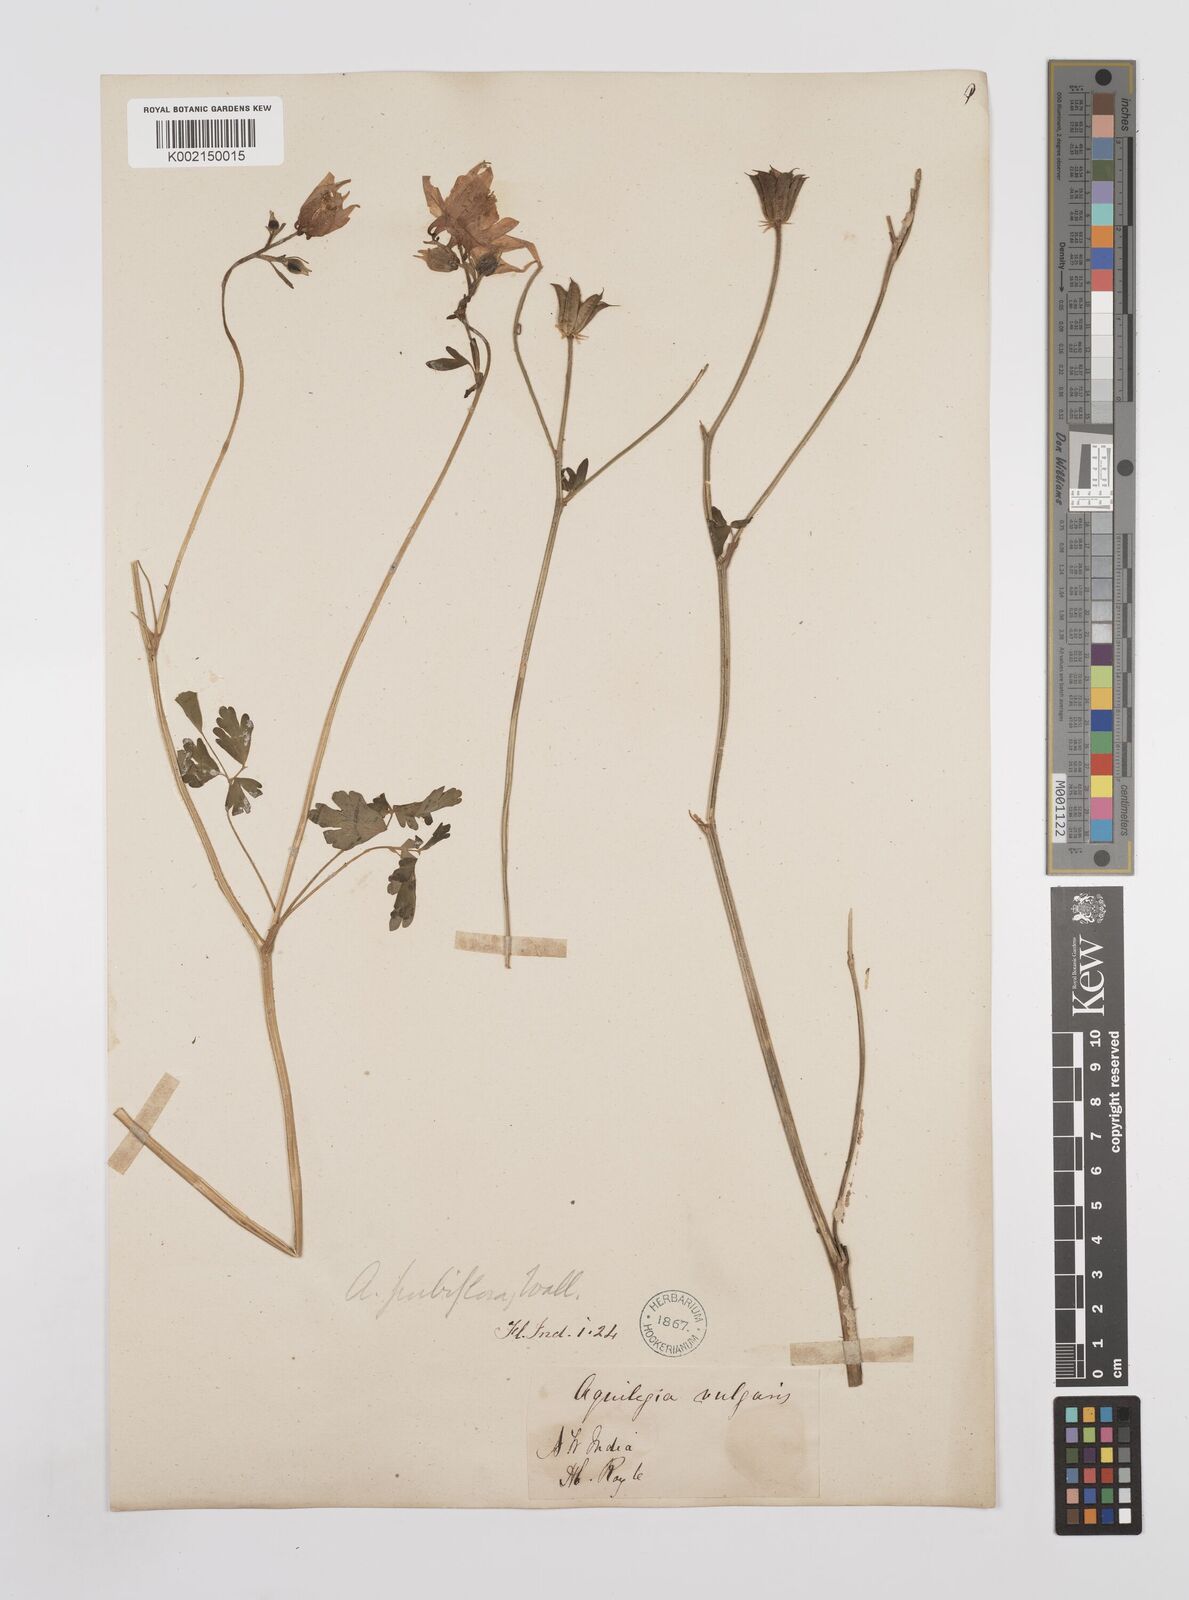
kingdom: Plantae
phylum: Tracheophyta
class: Magnoliopsida
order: Ranunculales
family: Ranunculaceae
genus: Aquilegia
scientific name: Aquilegia pubiflora
